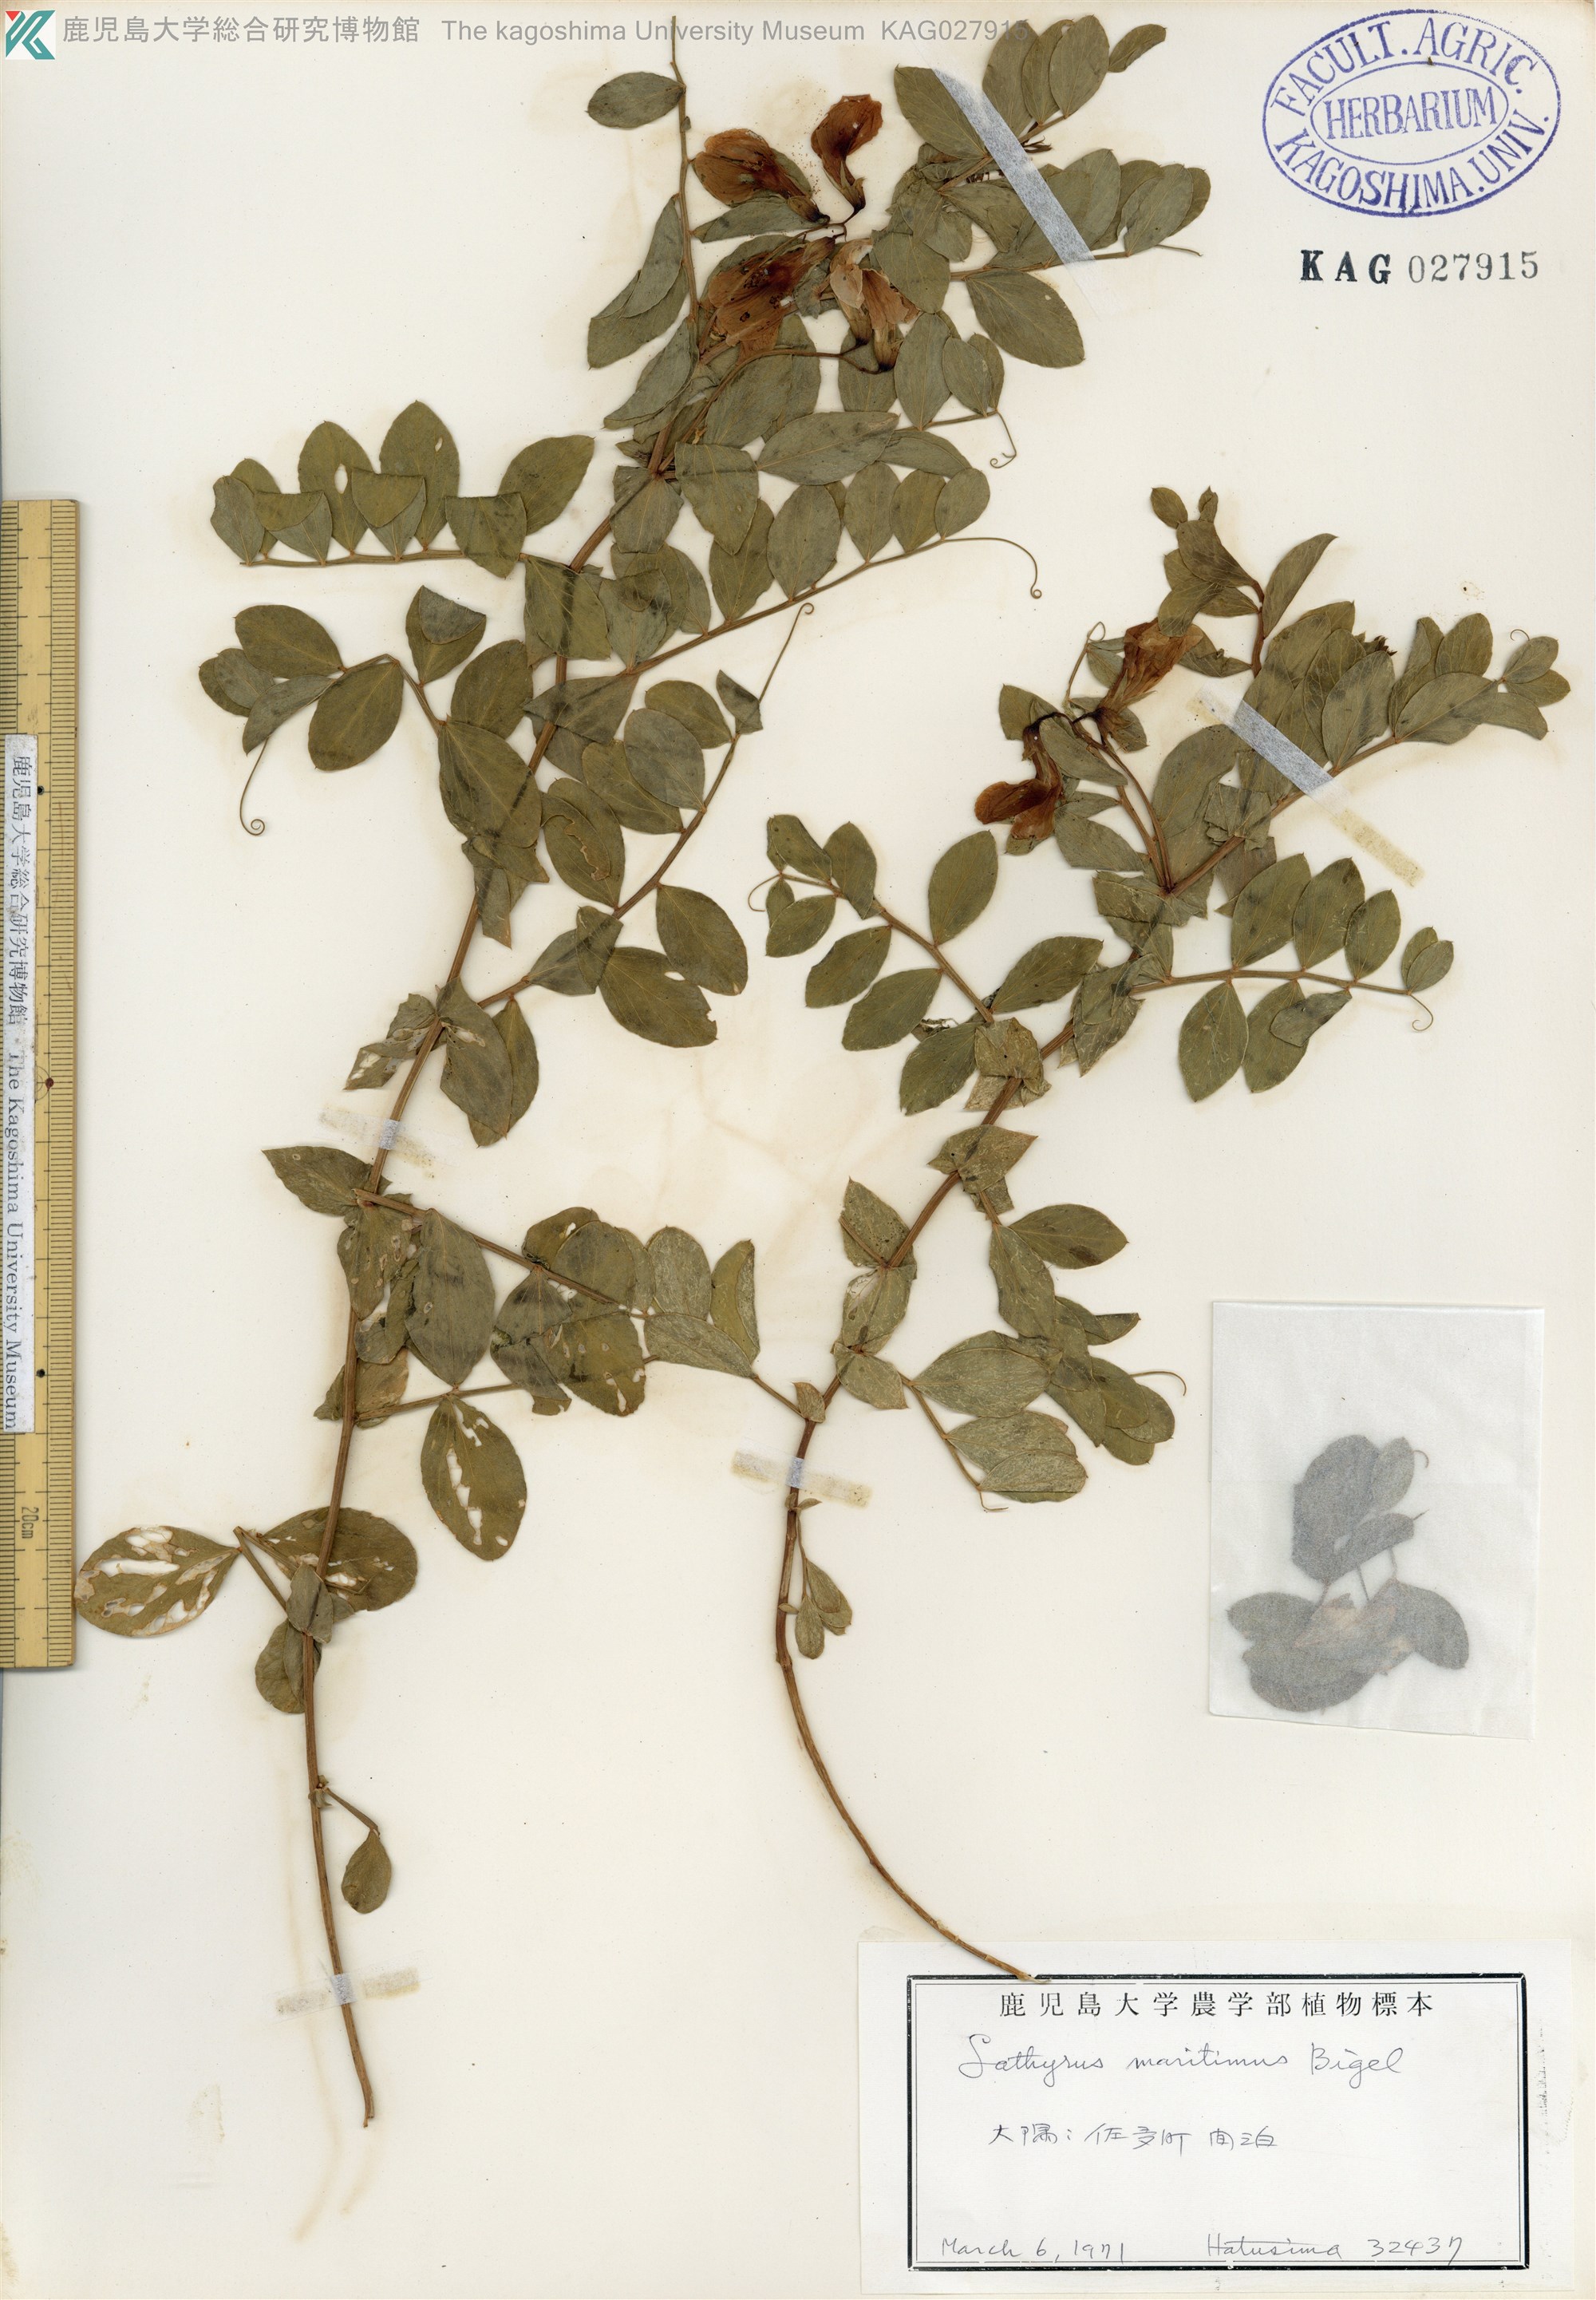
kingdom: Plantae
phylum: Tracheophyta
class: Magnoliopsida
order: Fabales
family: Fabaceae
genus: Lathyrus
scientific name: Lathyrus japonicus
